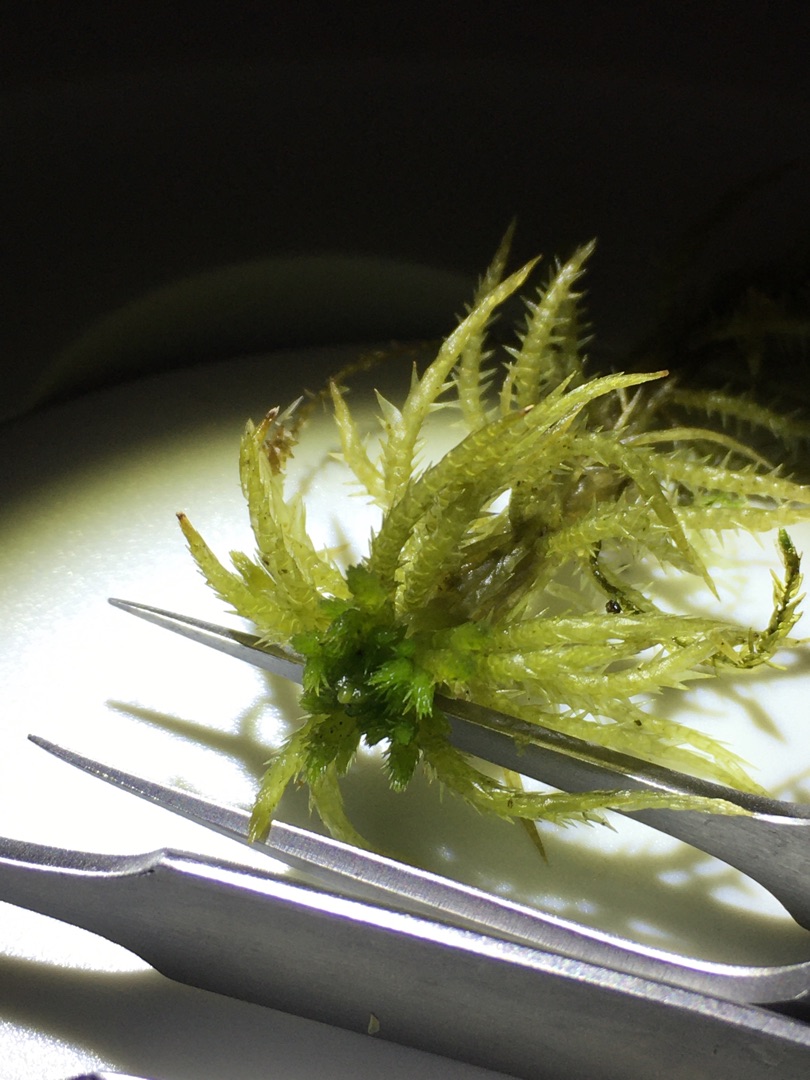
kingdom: Plantae
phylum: Bryophyta
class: Sphagnopsida
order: Sphagnales
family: Sphagnaceae
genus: Sphagnum
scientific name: Sphagnum squarrosum
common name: Udspærret tørvemos
